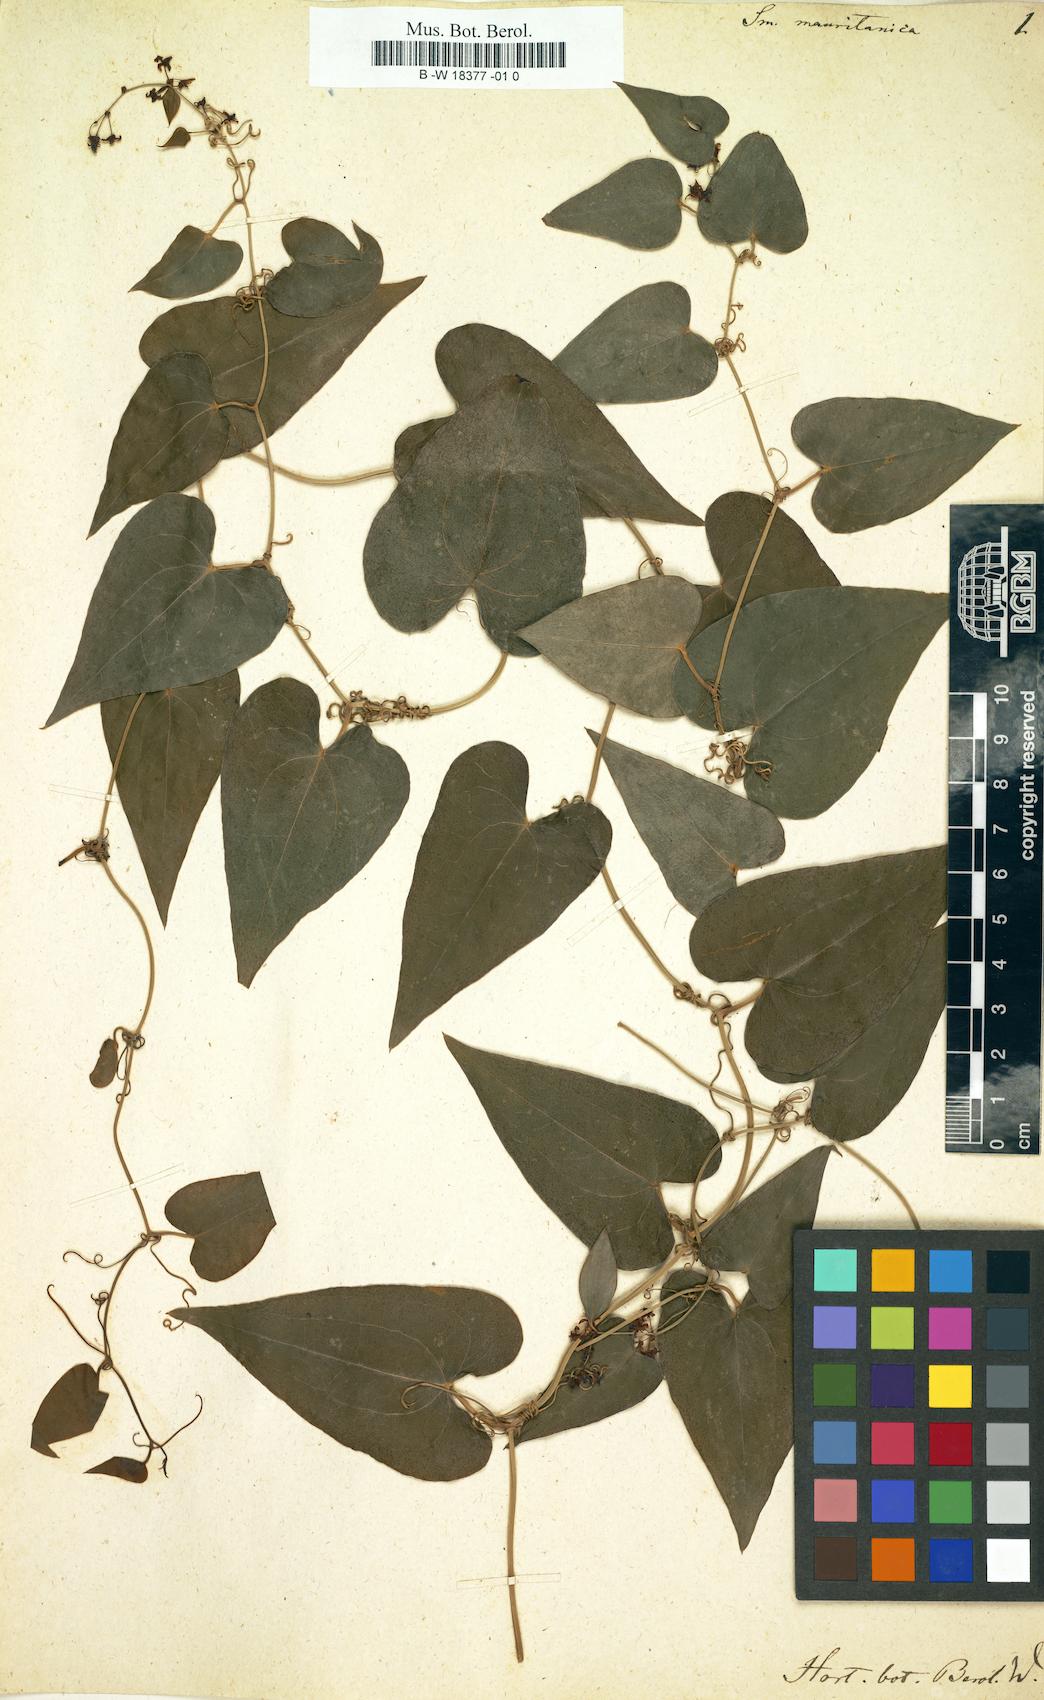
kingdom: Plantae
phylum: Tracheophyta
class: Liliopsida
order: Liliales
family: Smilacaceae
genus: Smilax
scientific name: Smilax aspera
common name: Common smilax
